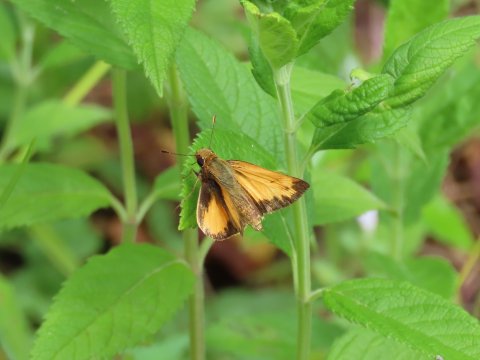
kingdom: Animalia
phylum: Arthropoda
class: Insecta
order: Lepidoptera
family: Hesperiidae
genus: Lon
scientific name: Lon zabulon
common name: Zabulon Skipper
